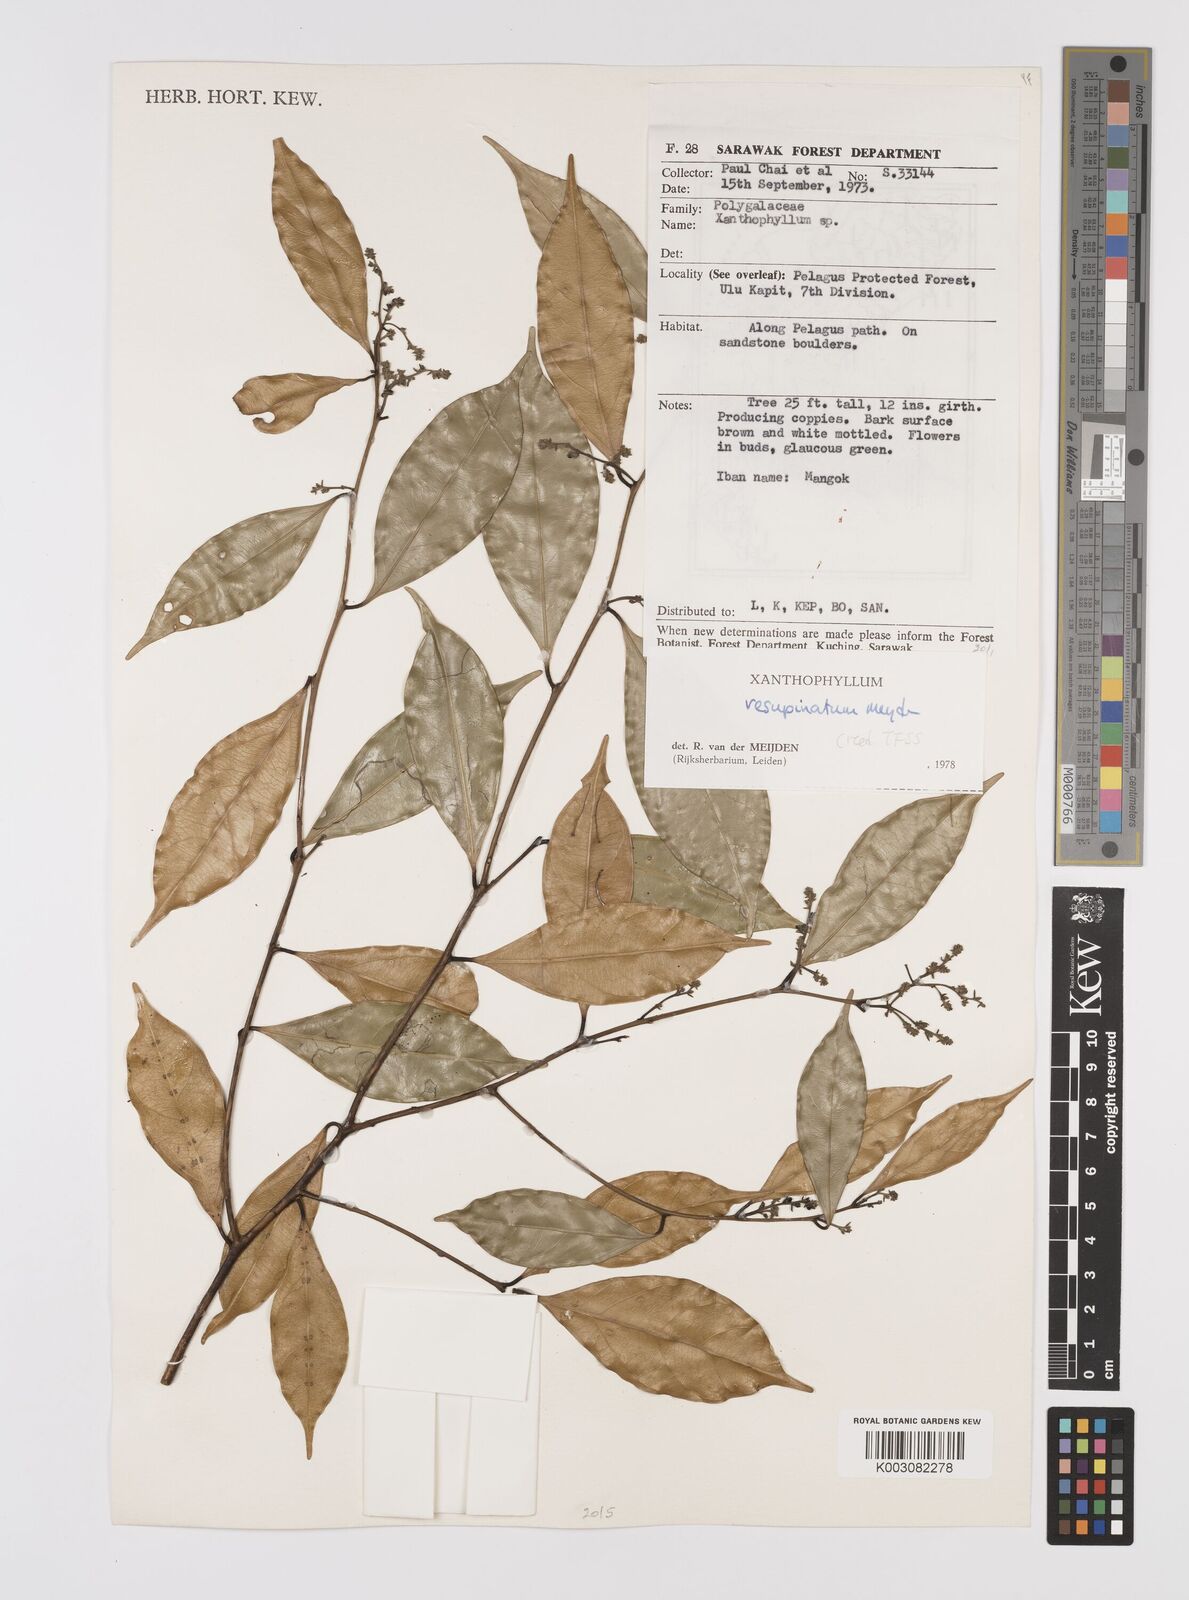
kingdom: Plantae
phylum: Tracheophyta
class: Magnoliopsida
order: Fabales
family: Polygalaceae
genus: Xanthophyllum
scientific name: Xanthophyllum resupinatum
